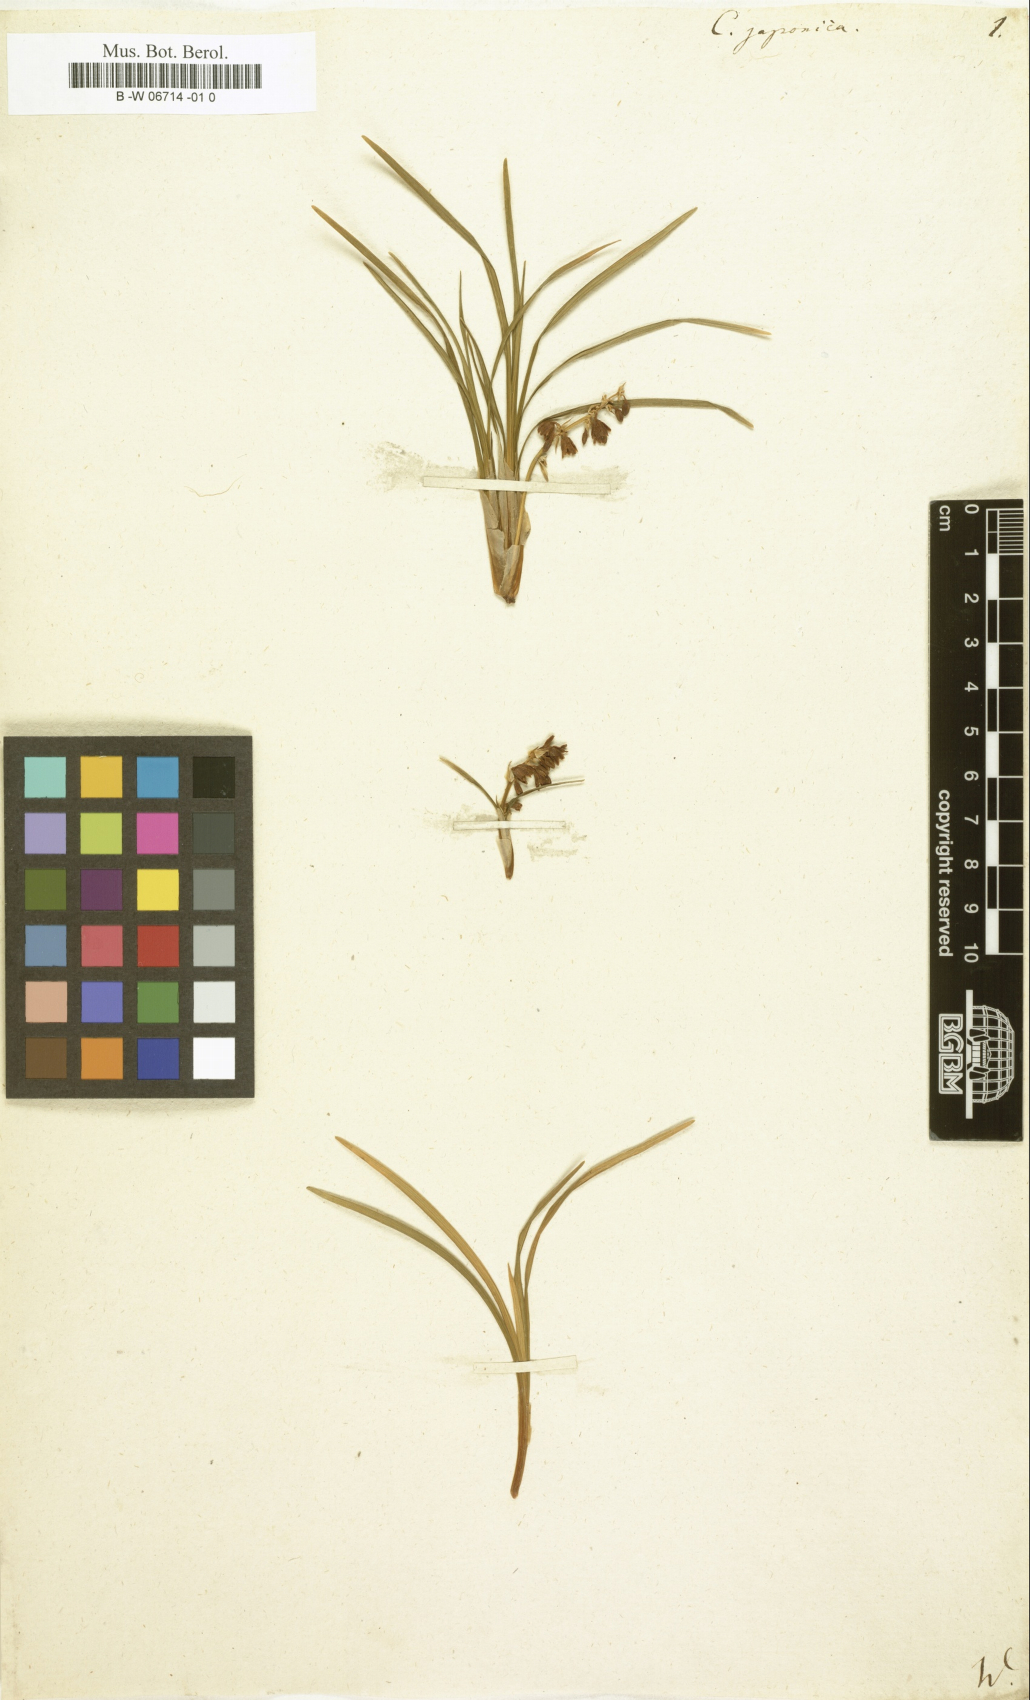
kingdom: Plantae
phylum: Tracheophyta
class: Liliopsida
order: Asparagales
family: Asparagaceae
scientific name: Asparagaceae
